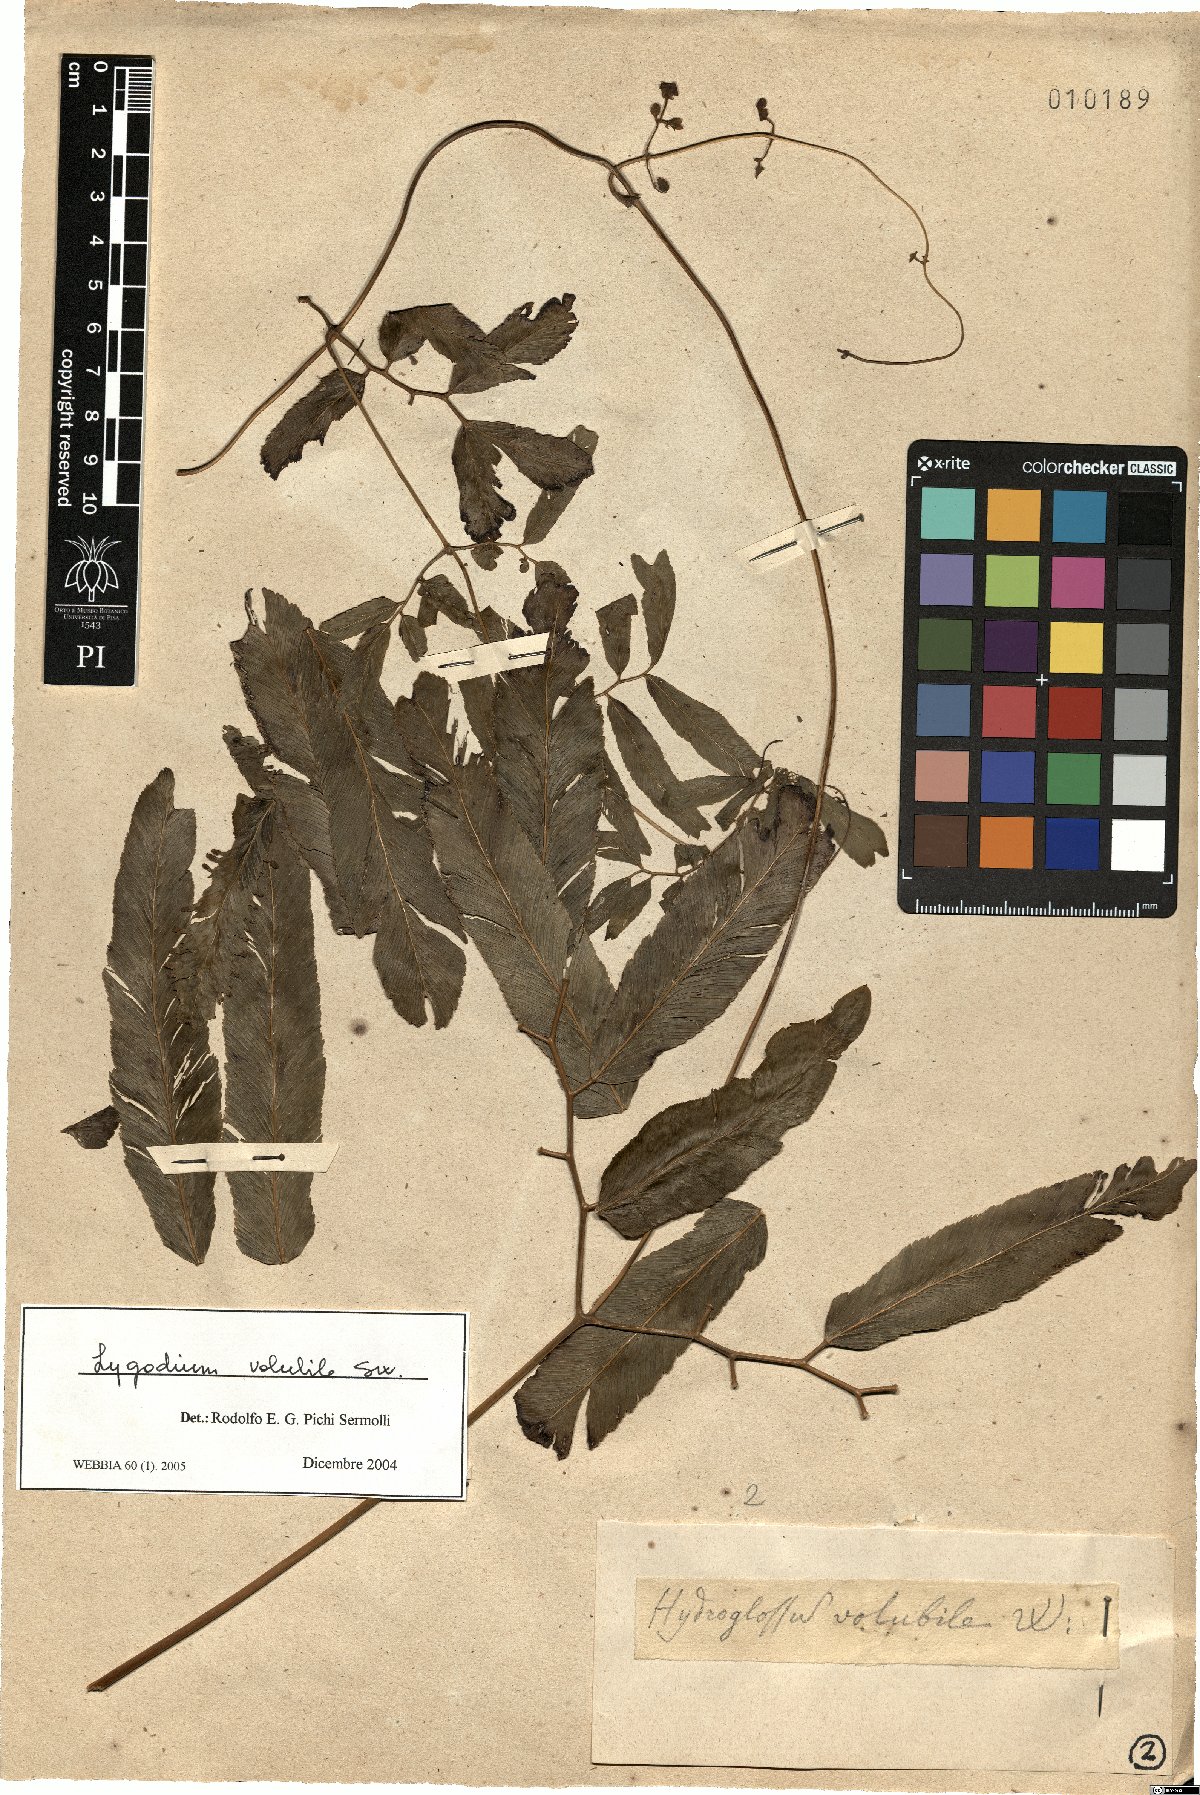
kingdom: Plantae
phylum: Tracheophyta
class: Polypodiopsida
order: Schizaeales
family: Lygodiaceae
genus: Lygodium
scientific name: Lygodium volubile
